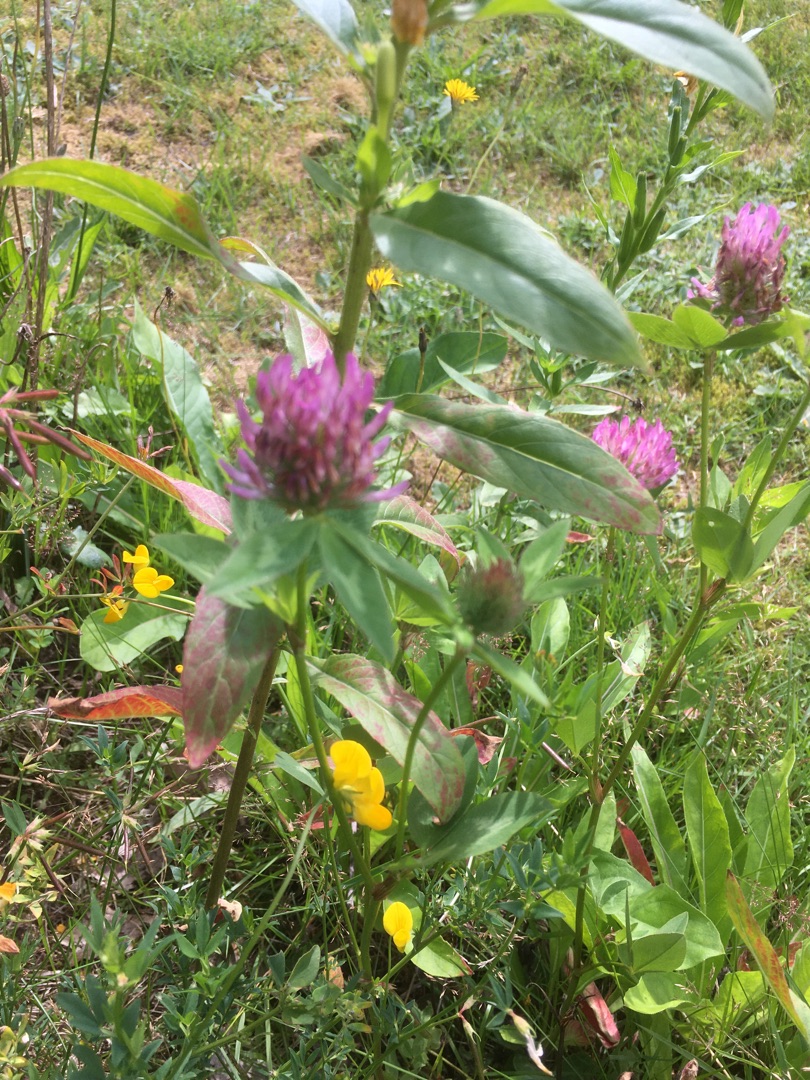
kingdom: Plantae
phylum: Tracheophyta
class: Magnoliopsida
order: Fabales
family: Fabaceae
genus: Trifolium
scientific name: Trifolium pratense
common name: Rød-kløver
